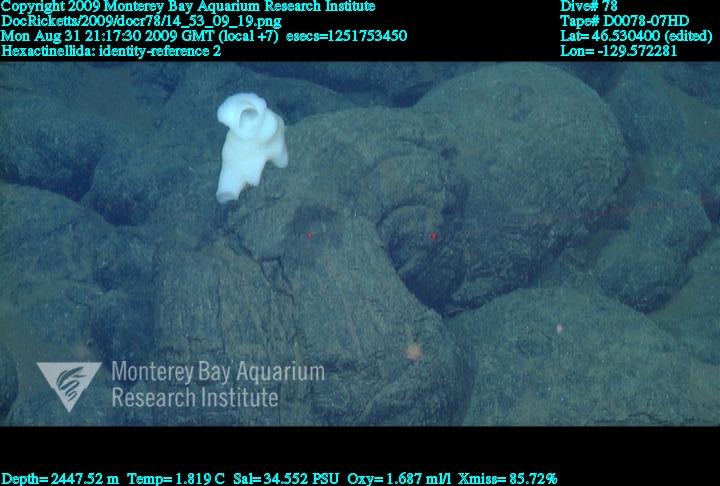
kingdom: Animalia
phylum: Porifera
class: Hexactinellida
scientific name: Hexactinellida
